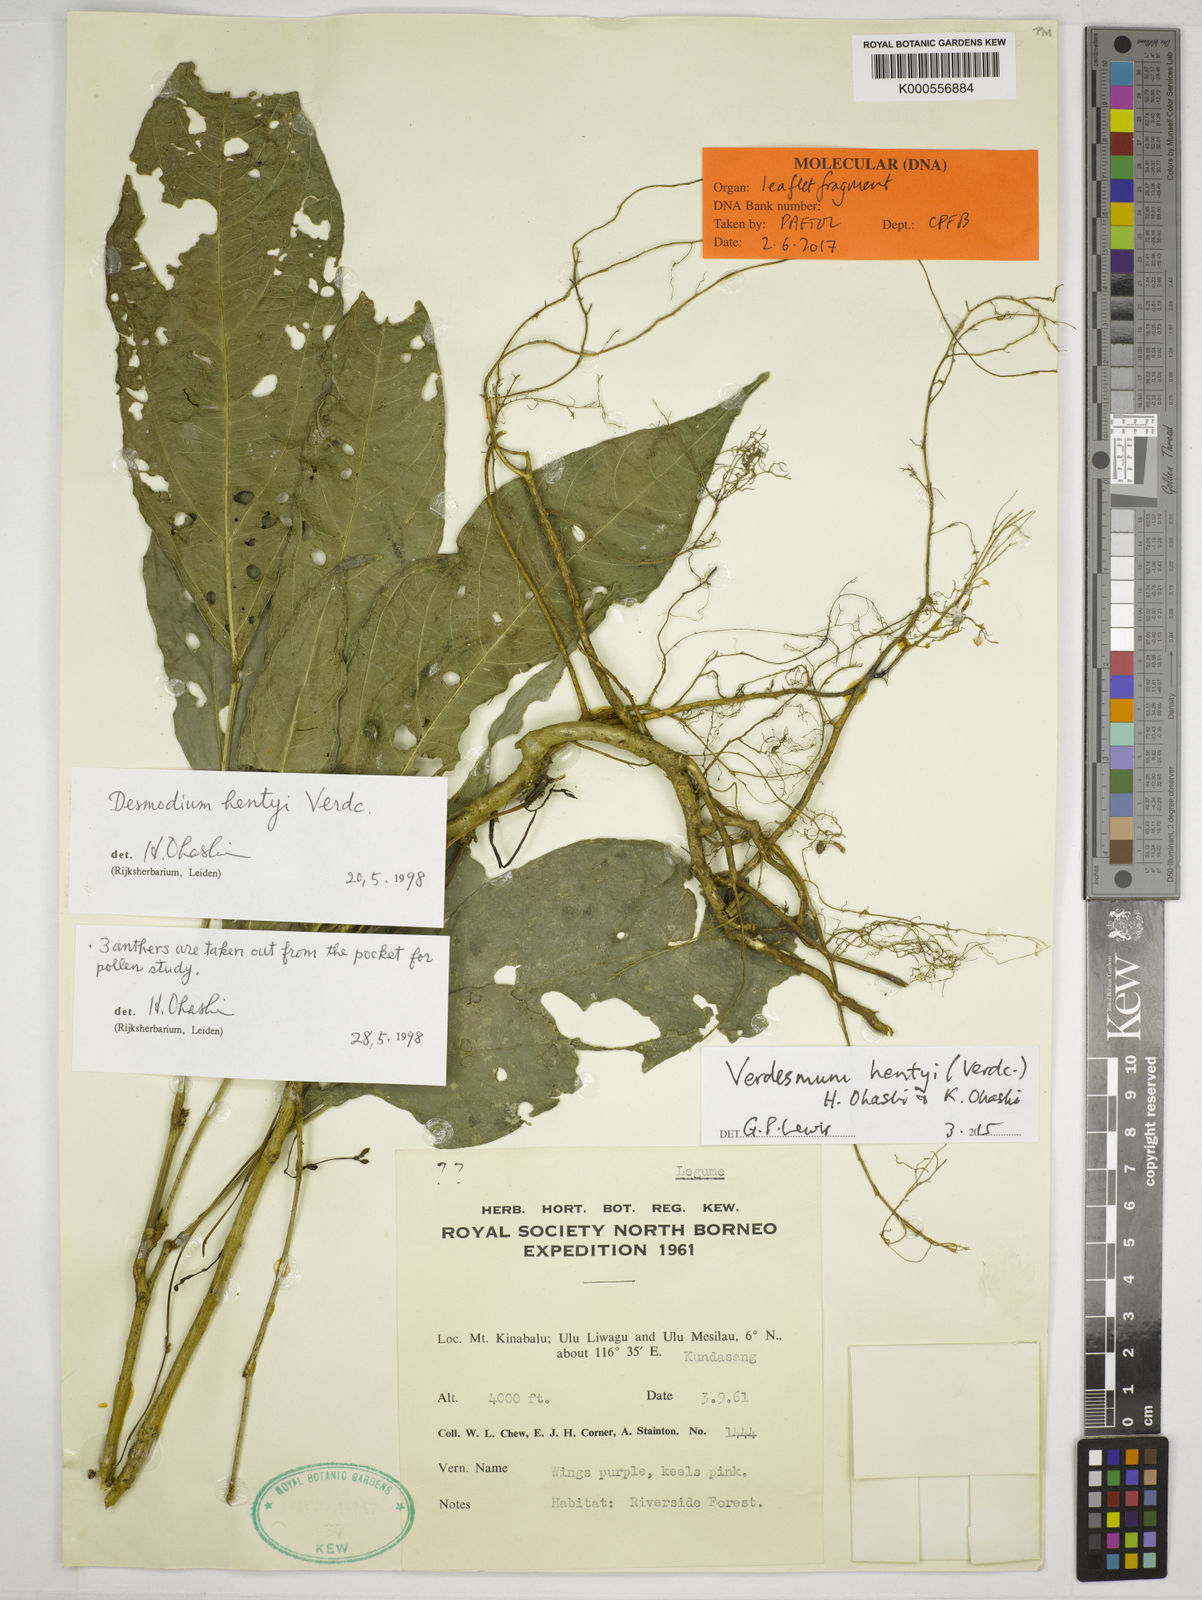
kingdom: Plantae
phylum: Tracheophyta
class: Magnoliopsida
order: Fabales
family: Fabaceae
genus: Verdesmum
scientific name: Verdesmum hentyi
